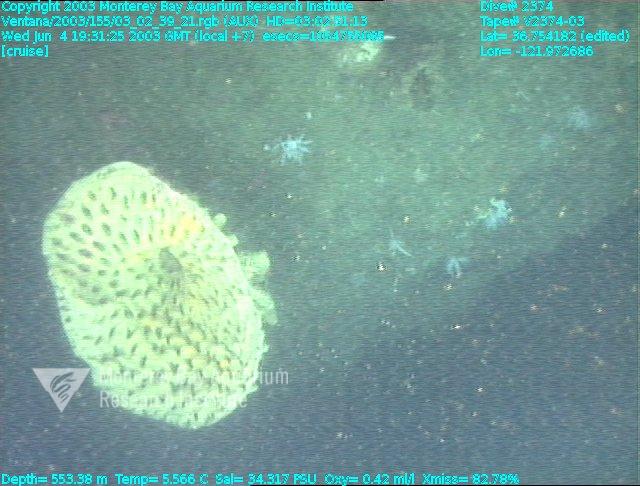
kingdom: Animalia
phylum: Porifera
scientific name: Porifera
